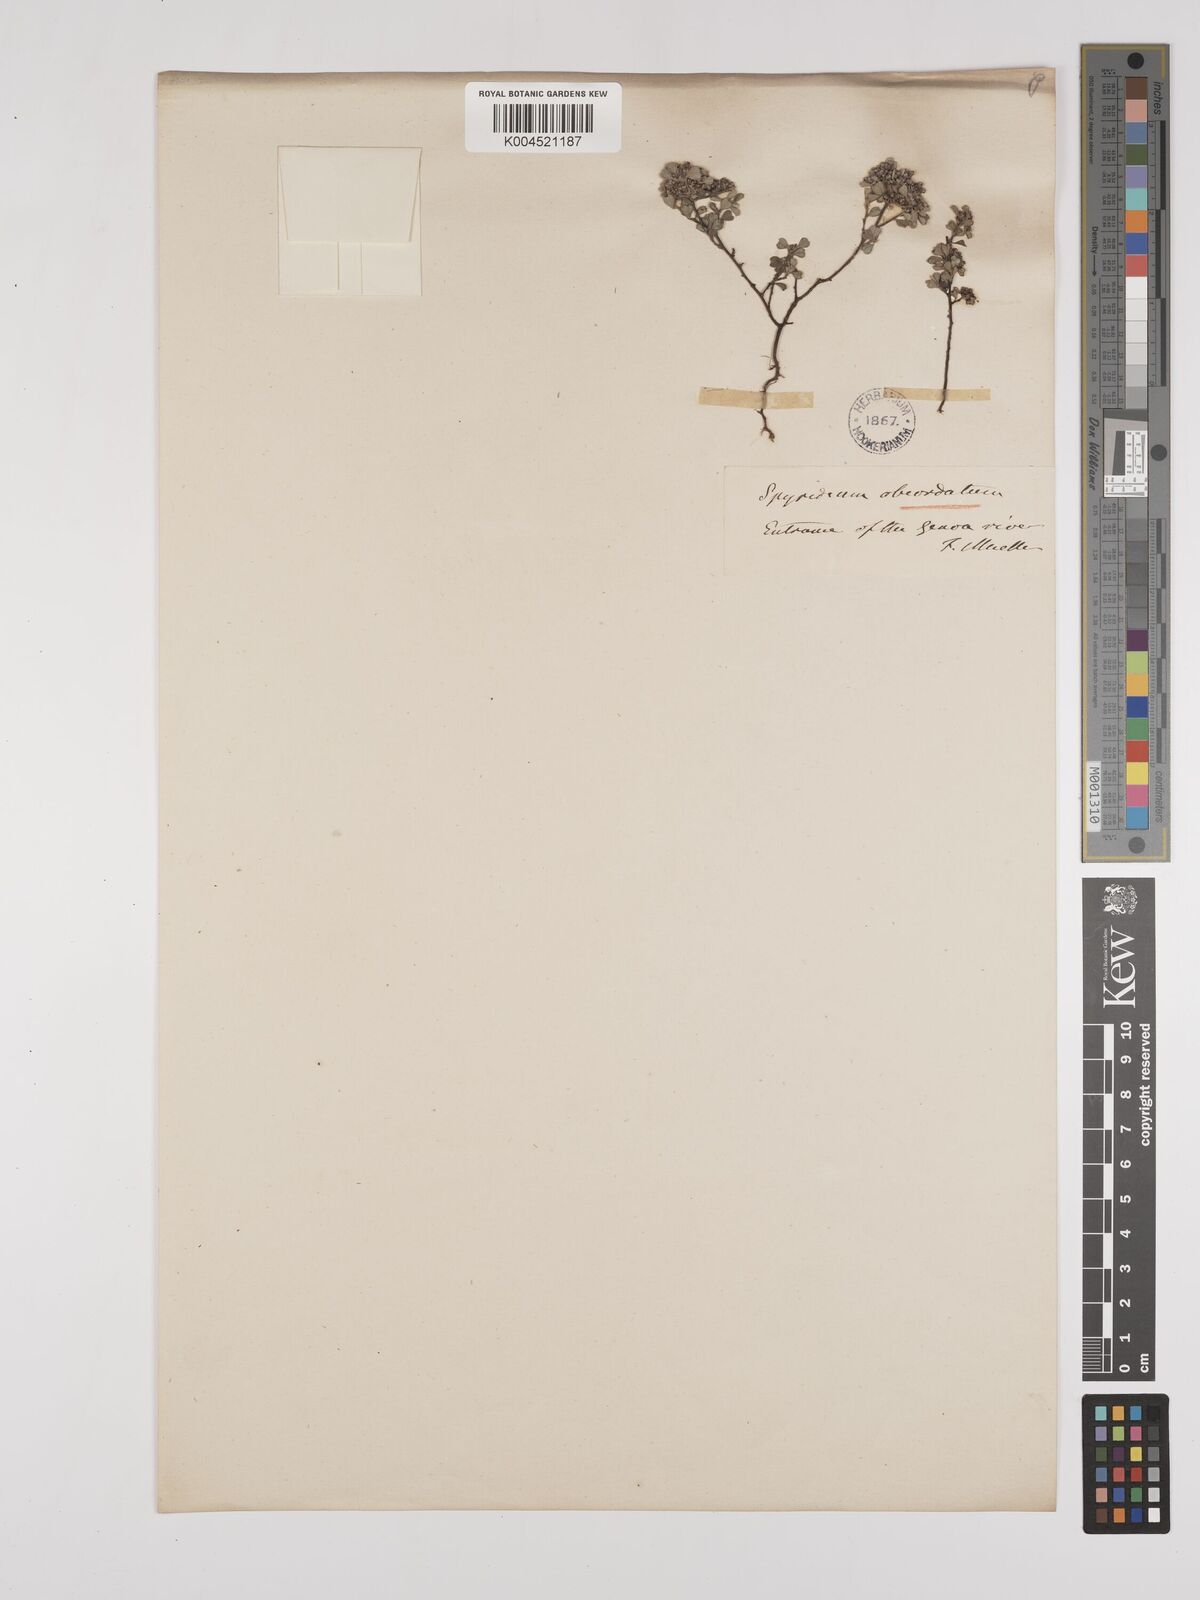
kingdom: Plantae
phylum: Tracheophyta
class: Magnoliopsida
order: Rosales
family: Rhamnaceae
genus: Spyridium
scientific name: Spyridium obcordatum
